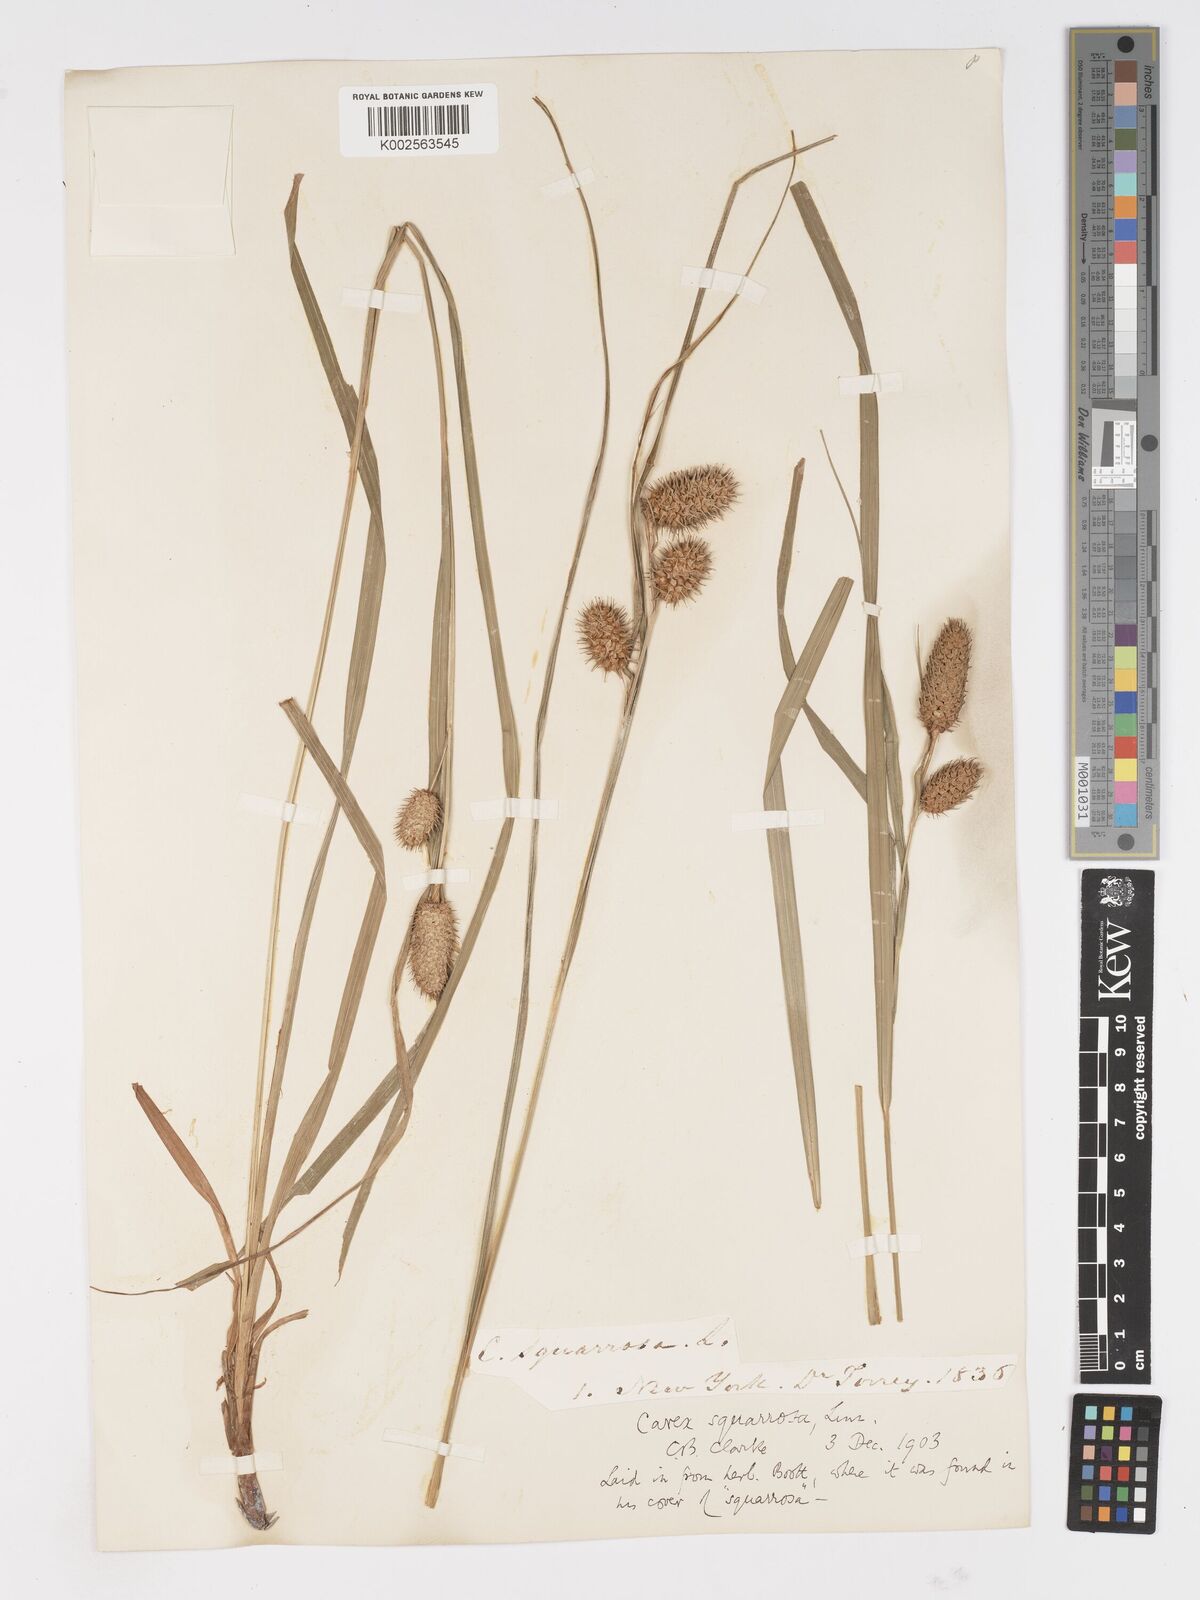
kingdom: Plantae
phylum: Tracheophyta
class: Liliopsida
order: Poales
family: Cyperaceae
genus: Carex
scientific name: Carex squarrosa
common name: Narrow-leaved cattail sedge
